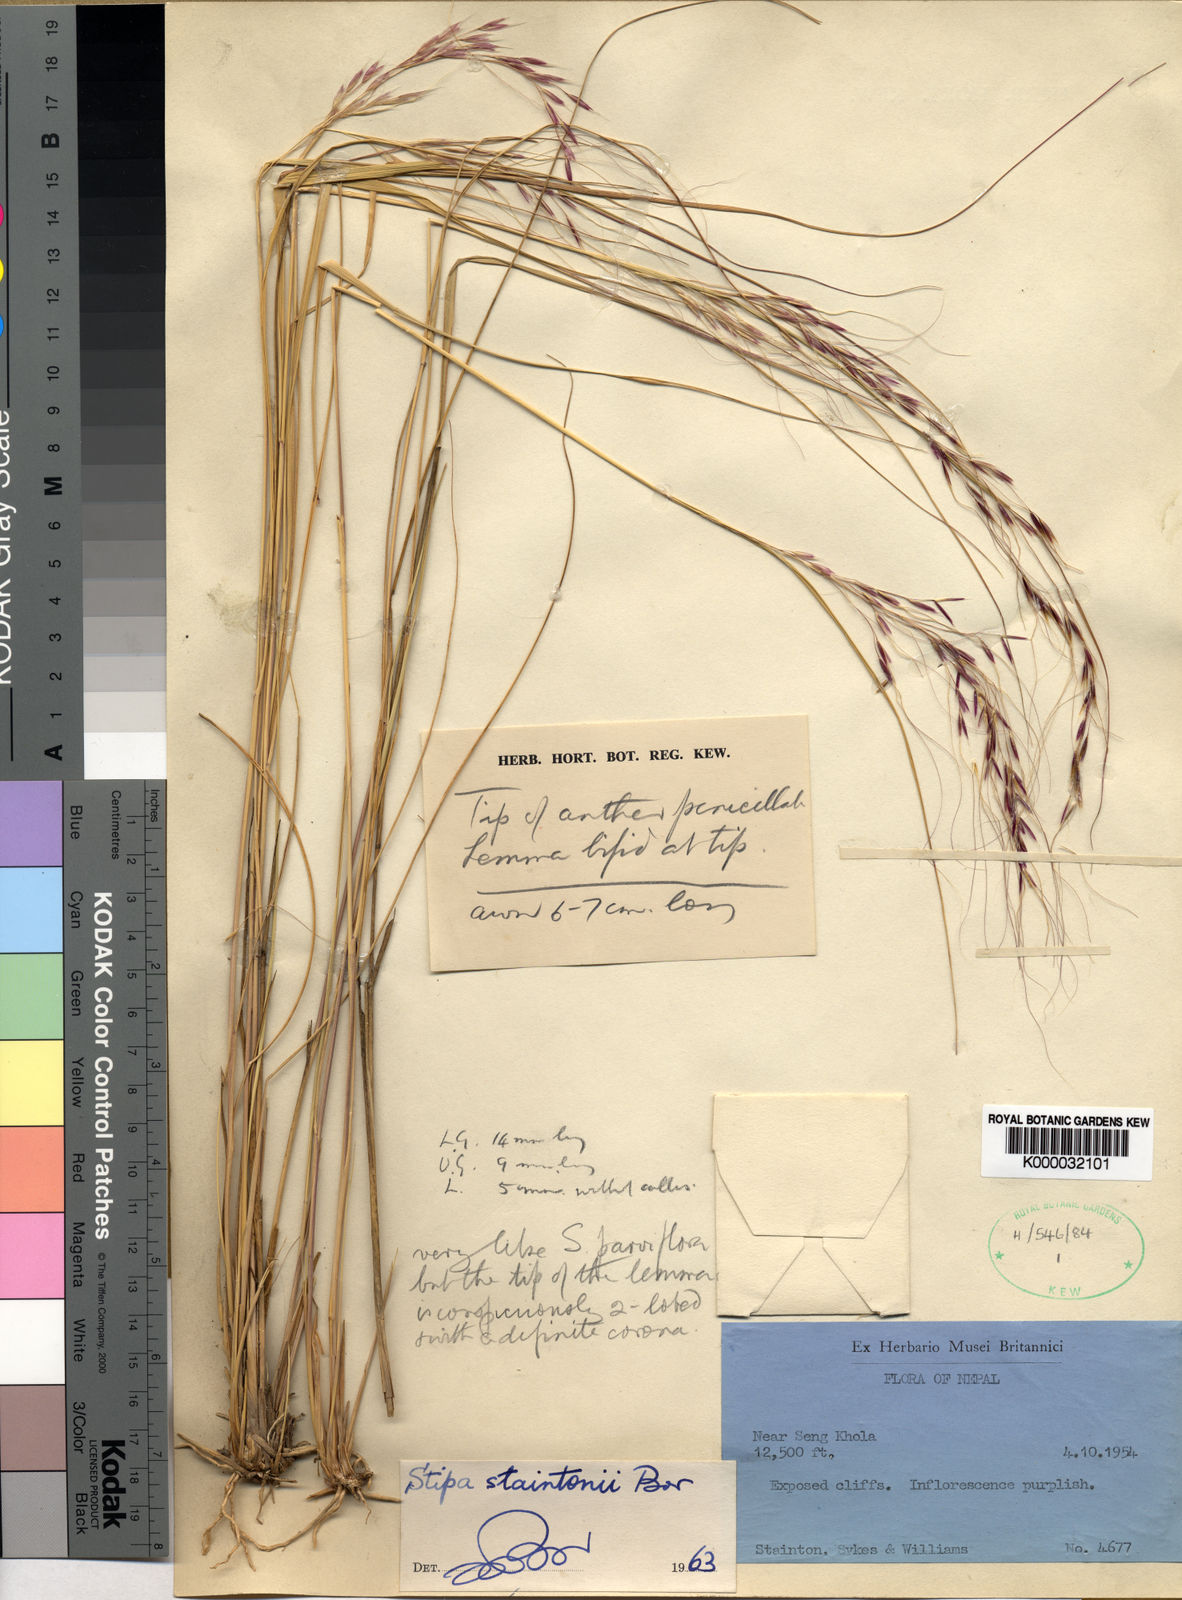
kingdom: Plantae
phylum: Tracheophyta
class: Liliopsida
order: Poales
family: Poaceae
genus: Achnatherum
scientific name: Achnatherum staintonii
